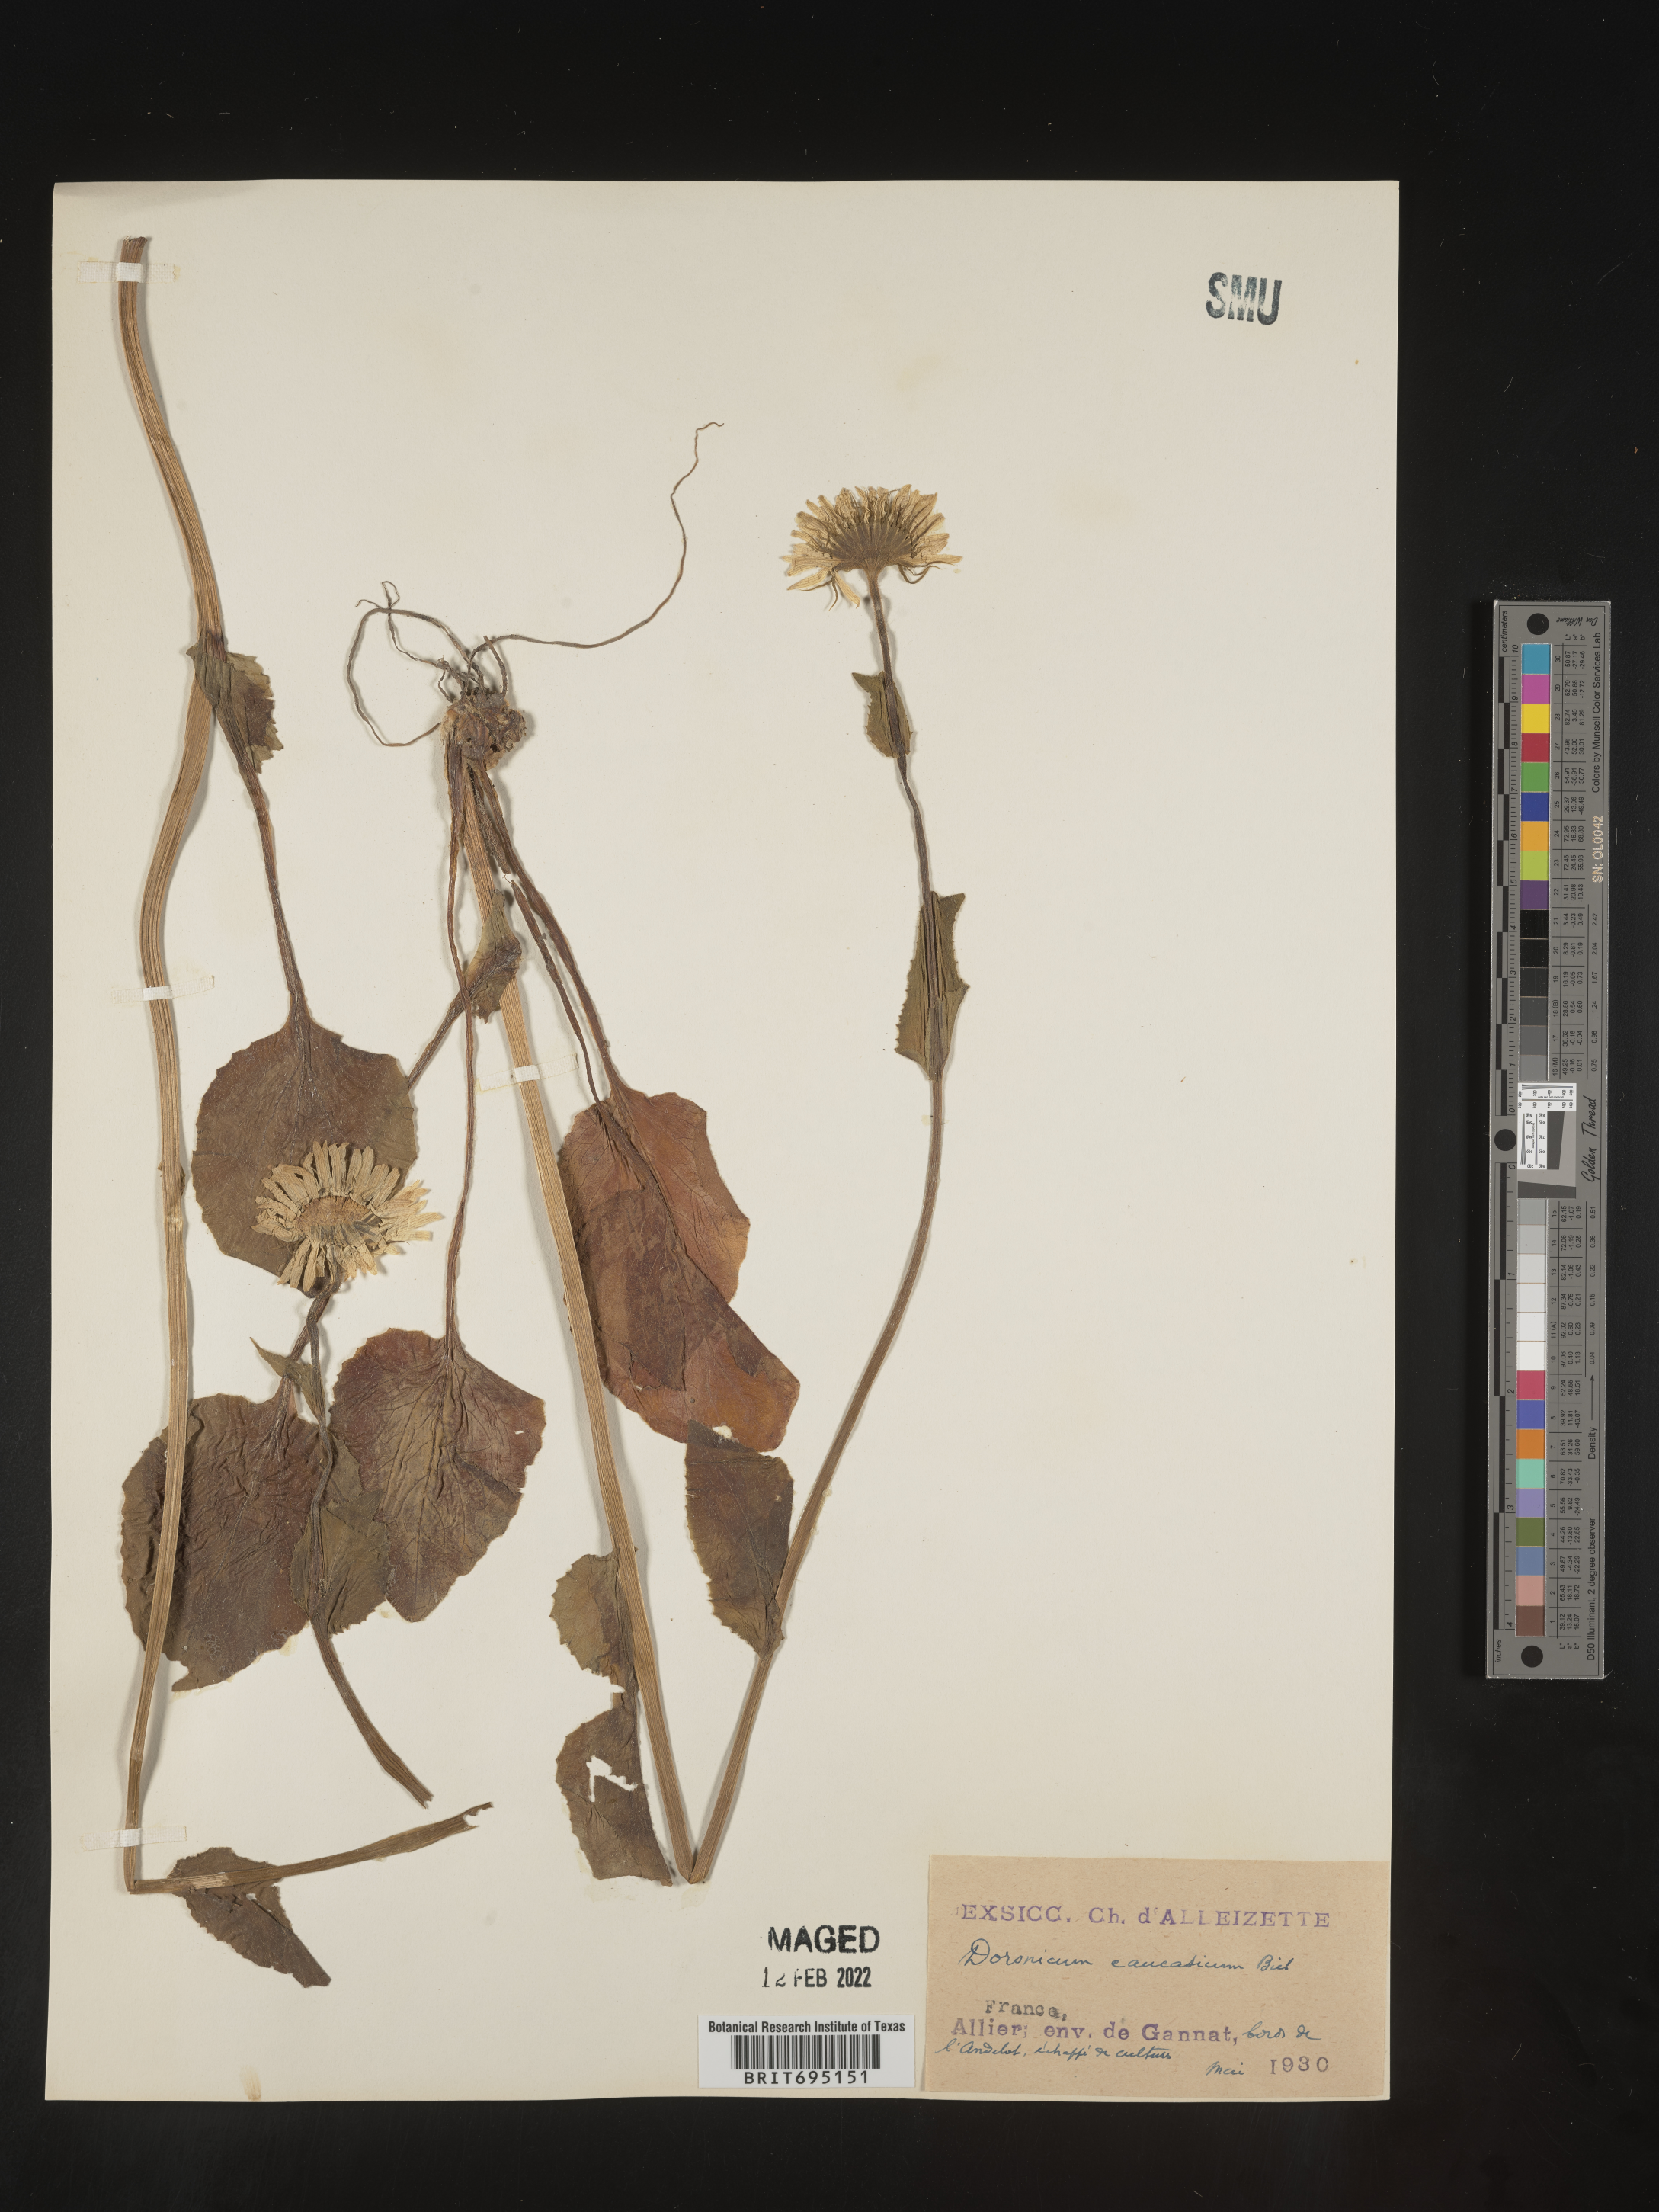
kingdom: Plantae
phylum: Tracheophyta
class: Magnoliopsida
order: Asterales
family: Asteraceae
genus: Doronicum
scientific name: Doronicum
